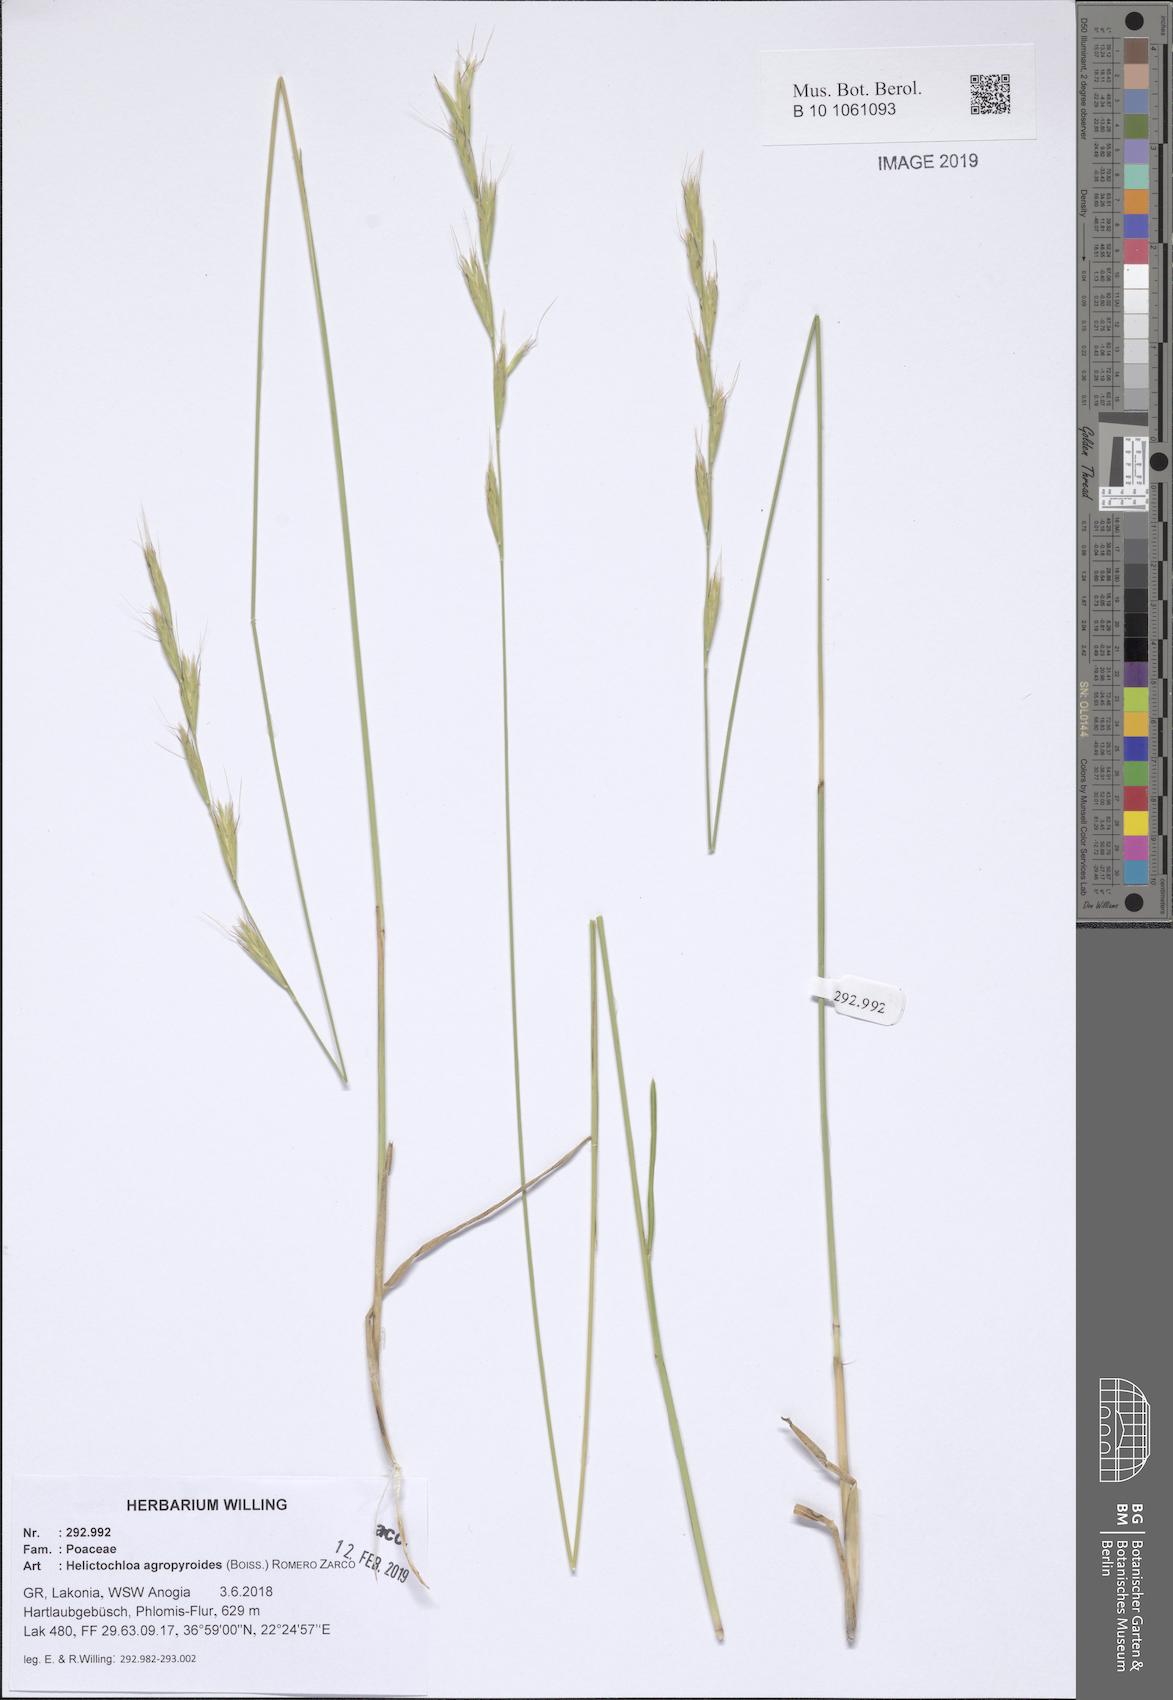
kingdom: Plantae
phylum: Tracheophyta
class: Liliopsida
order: Poales
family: Poaceae
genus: Helictochloa
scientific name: Helictochloa agropyroides
